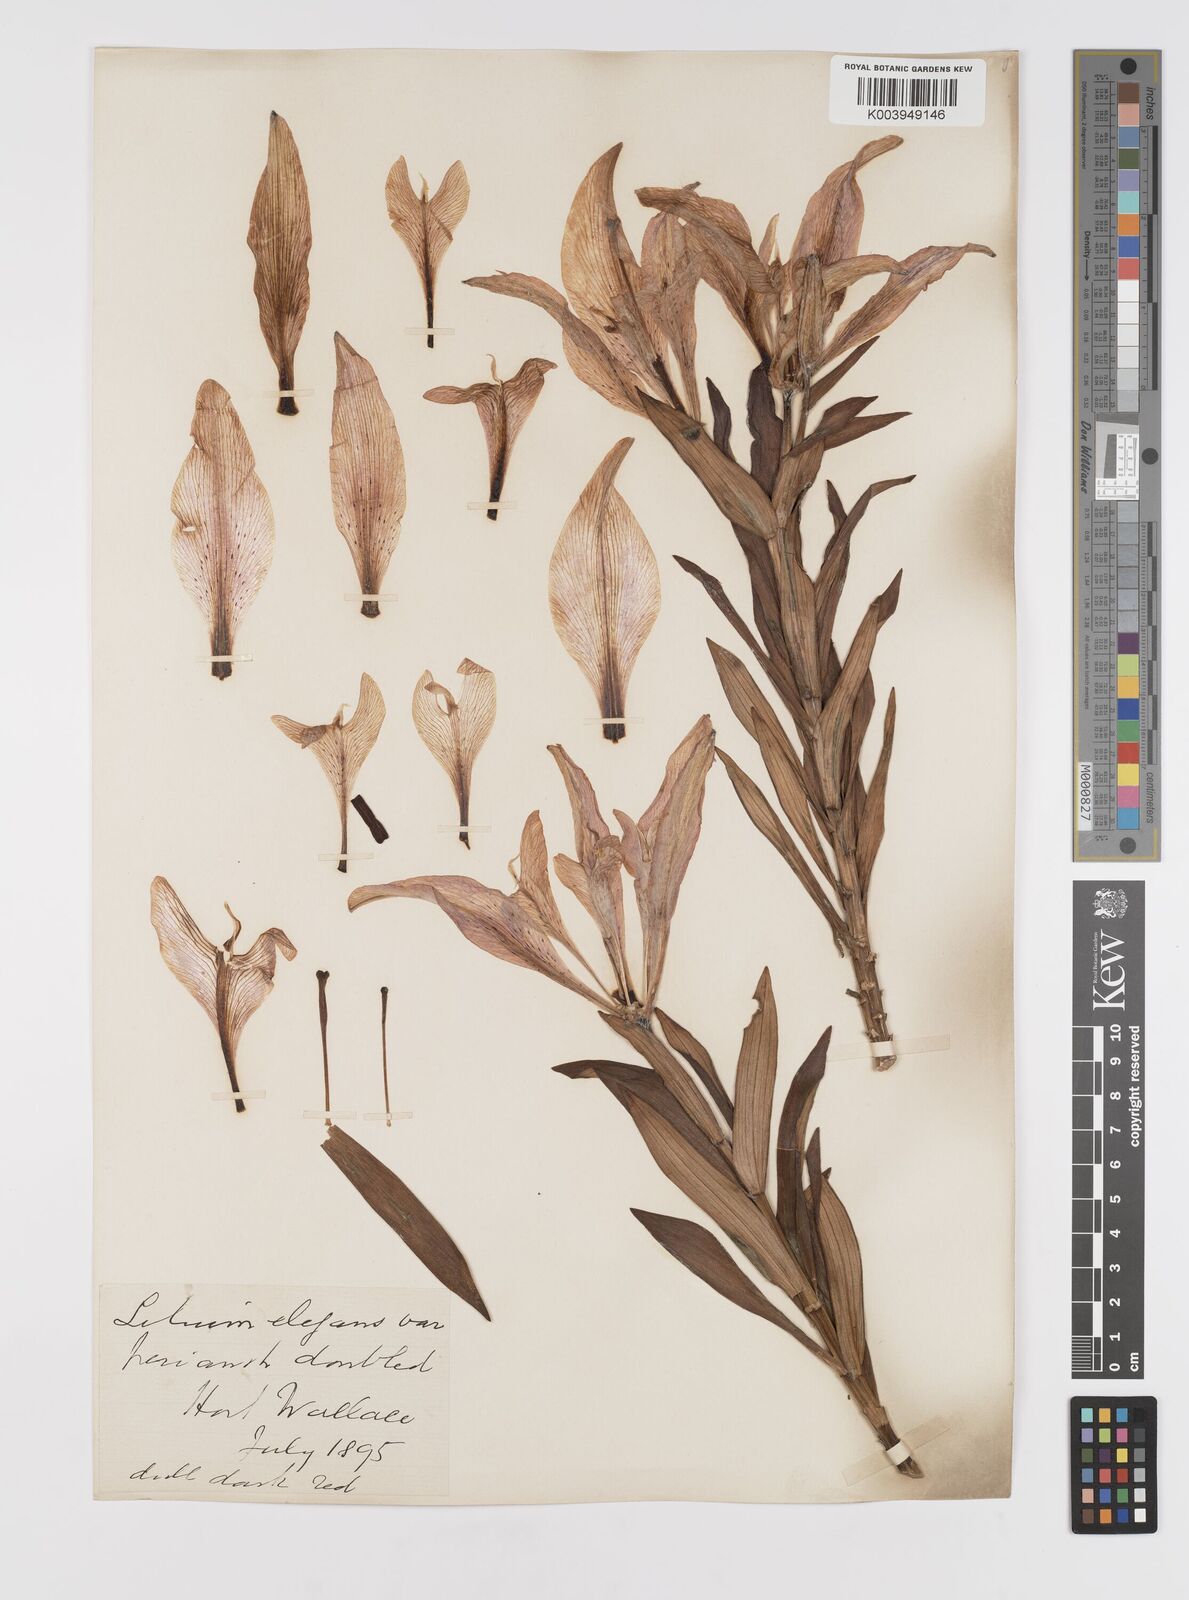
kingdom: Plantae
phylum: Tracheophyta
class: Liliopsida
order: Liliales
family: Liliaceae
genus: Lilium
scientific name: Lilium pensylvanicum
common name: Candlestick lily
